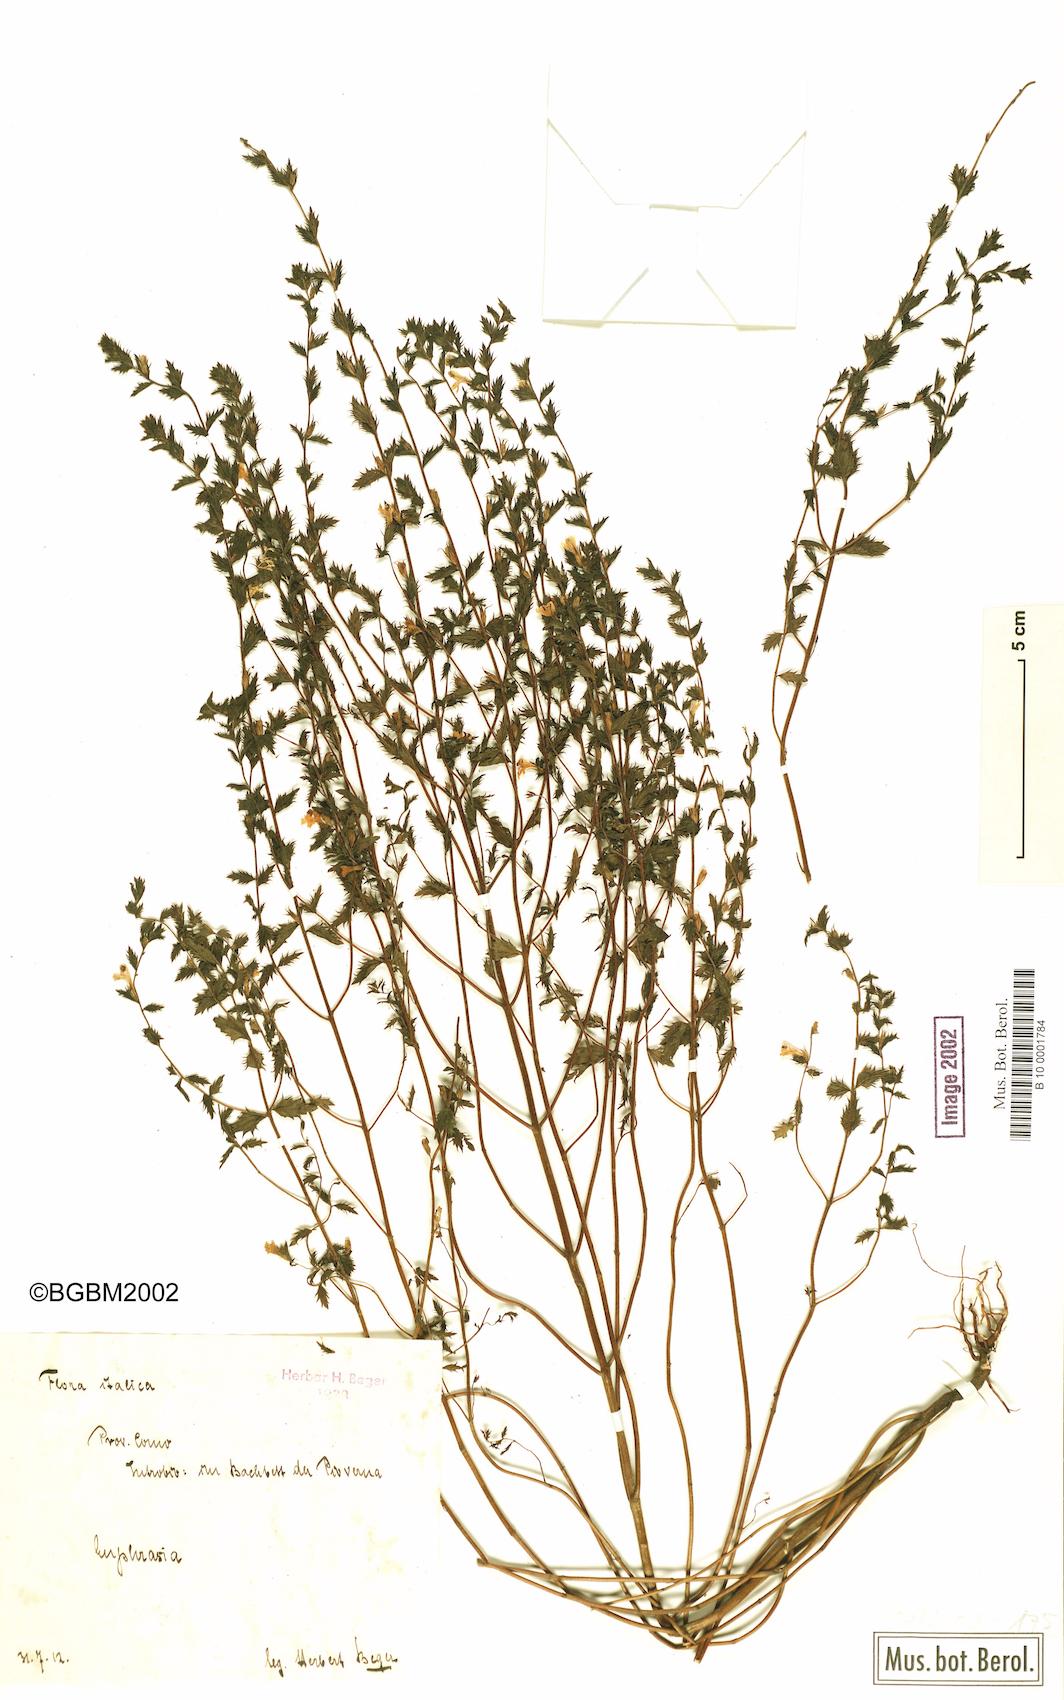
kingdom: Plantae
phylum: Tracheophyta
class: Magnoliopsida
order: Lamiales
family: Orobanchaceae
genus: Euphrasia
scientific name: Euphrasia
